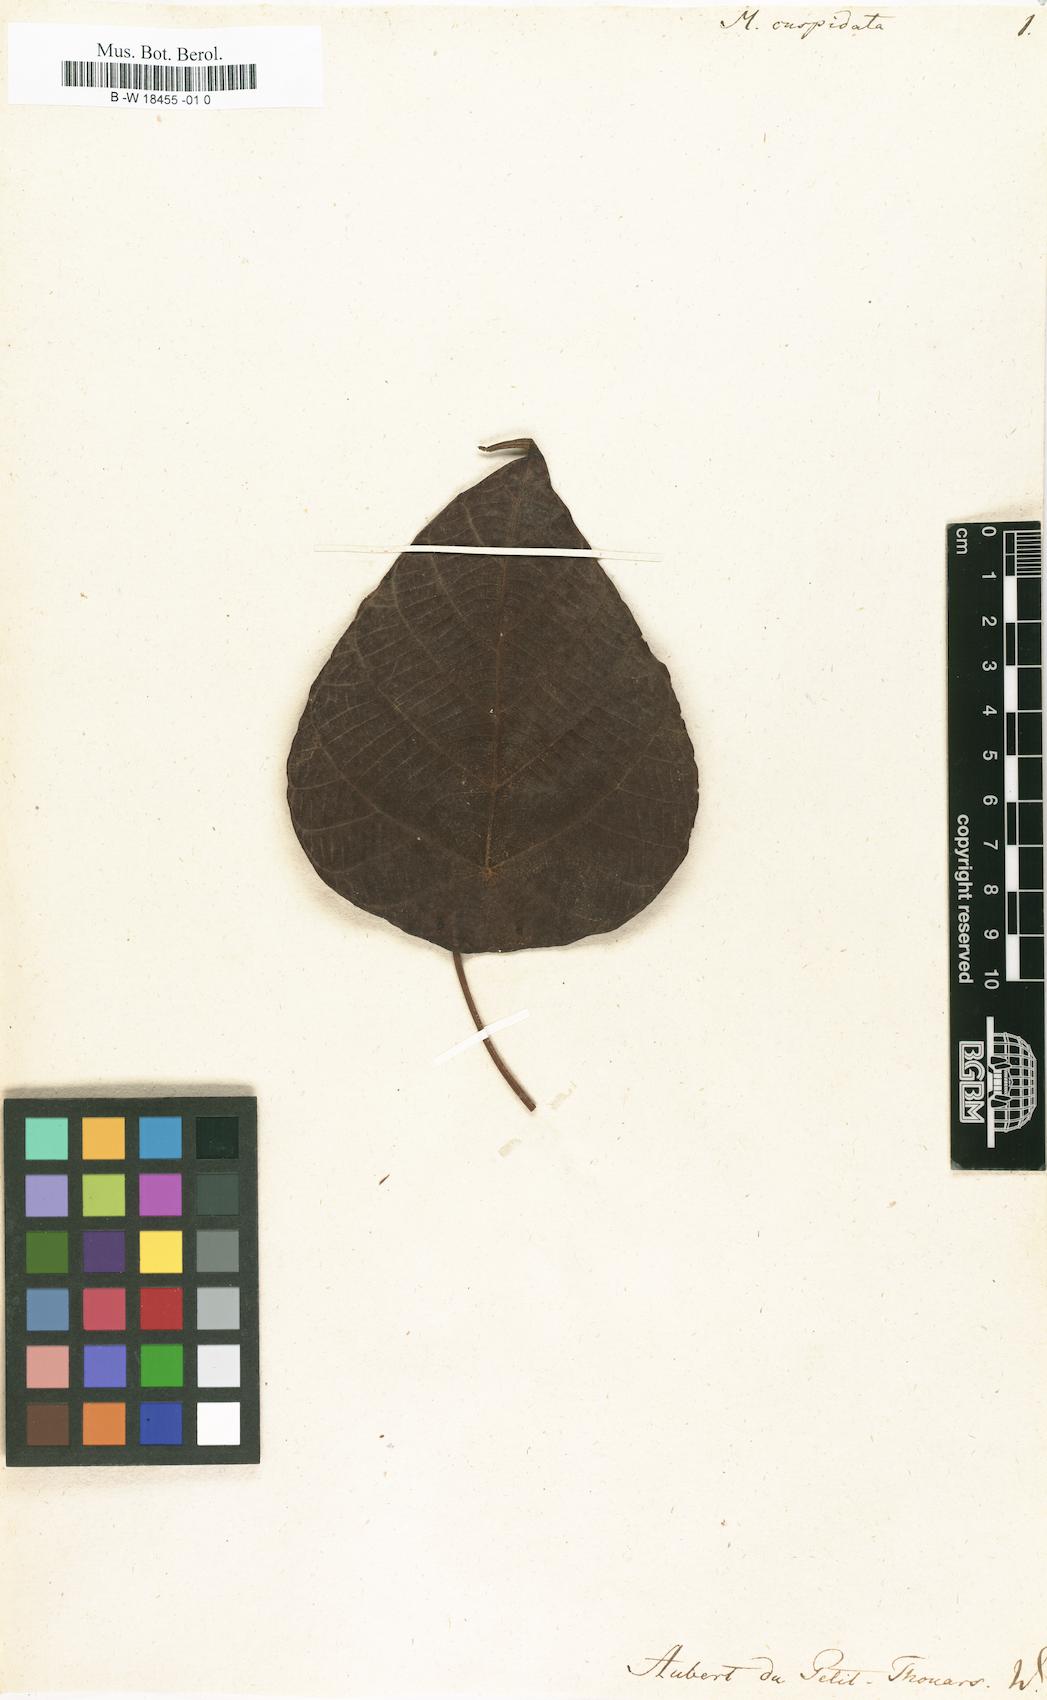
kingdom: Plantae
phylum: Tracheophyta
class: Magnoliopsida
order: Malpighiales
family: Euphorbiaceae
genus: Macaranga
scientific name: Macaranga cuspidata
